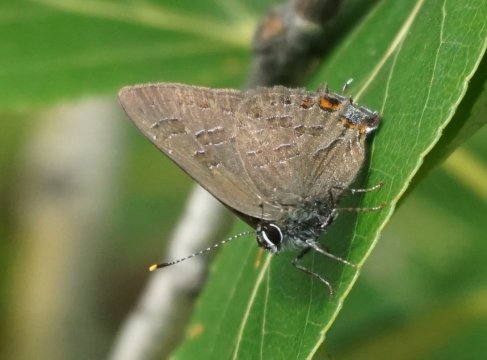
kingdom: Animalia
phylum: Arthropoda
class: Insecta
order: Lepidoptera
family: Lycaenidae
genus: Satyrium
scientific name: Satyrium liparops
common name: Striped Hairstreak
